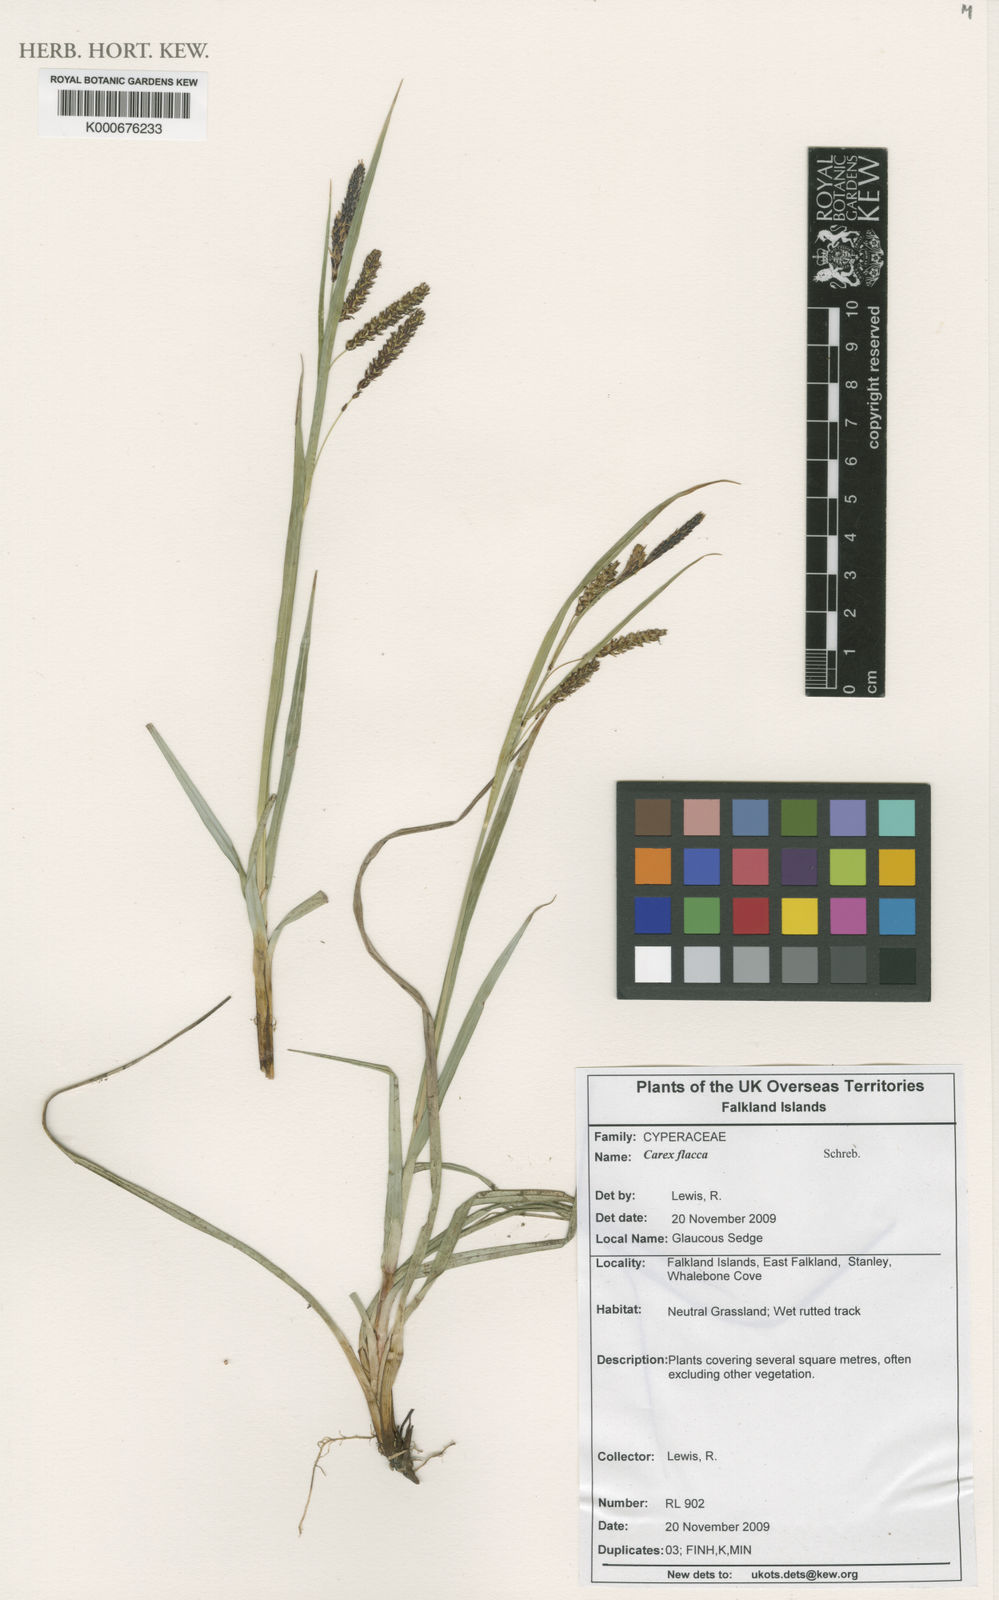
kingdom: Plantae
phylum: Tracheophyta
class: Liliopsida
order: Poales
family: Cyperaceae
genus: Carex
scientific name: Carex flacca
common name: Glaucous sedge
